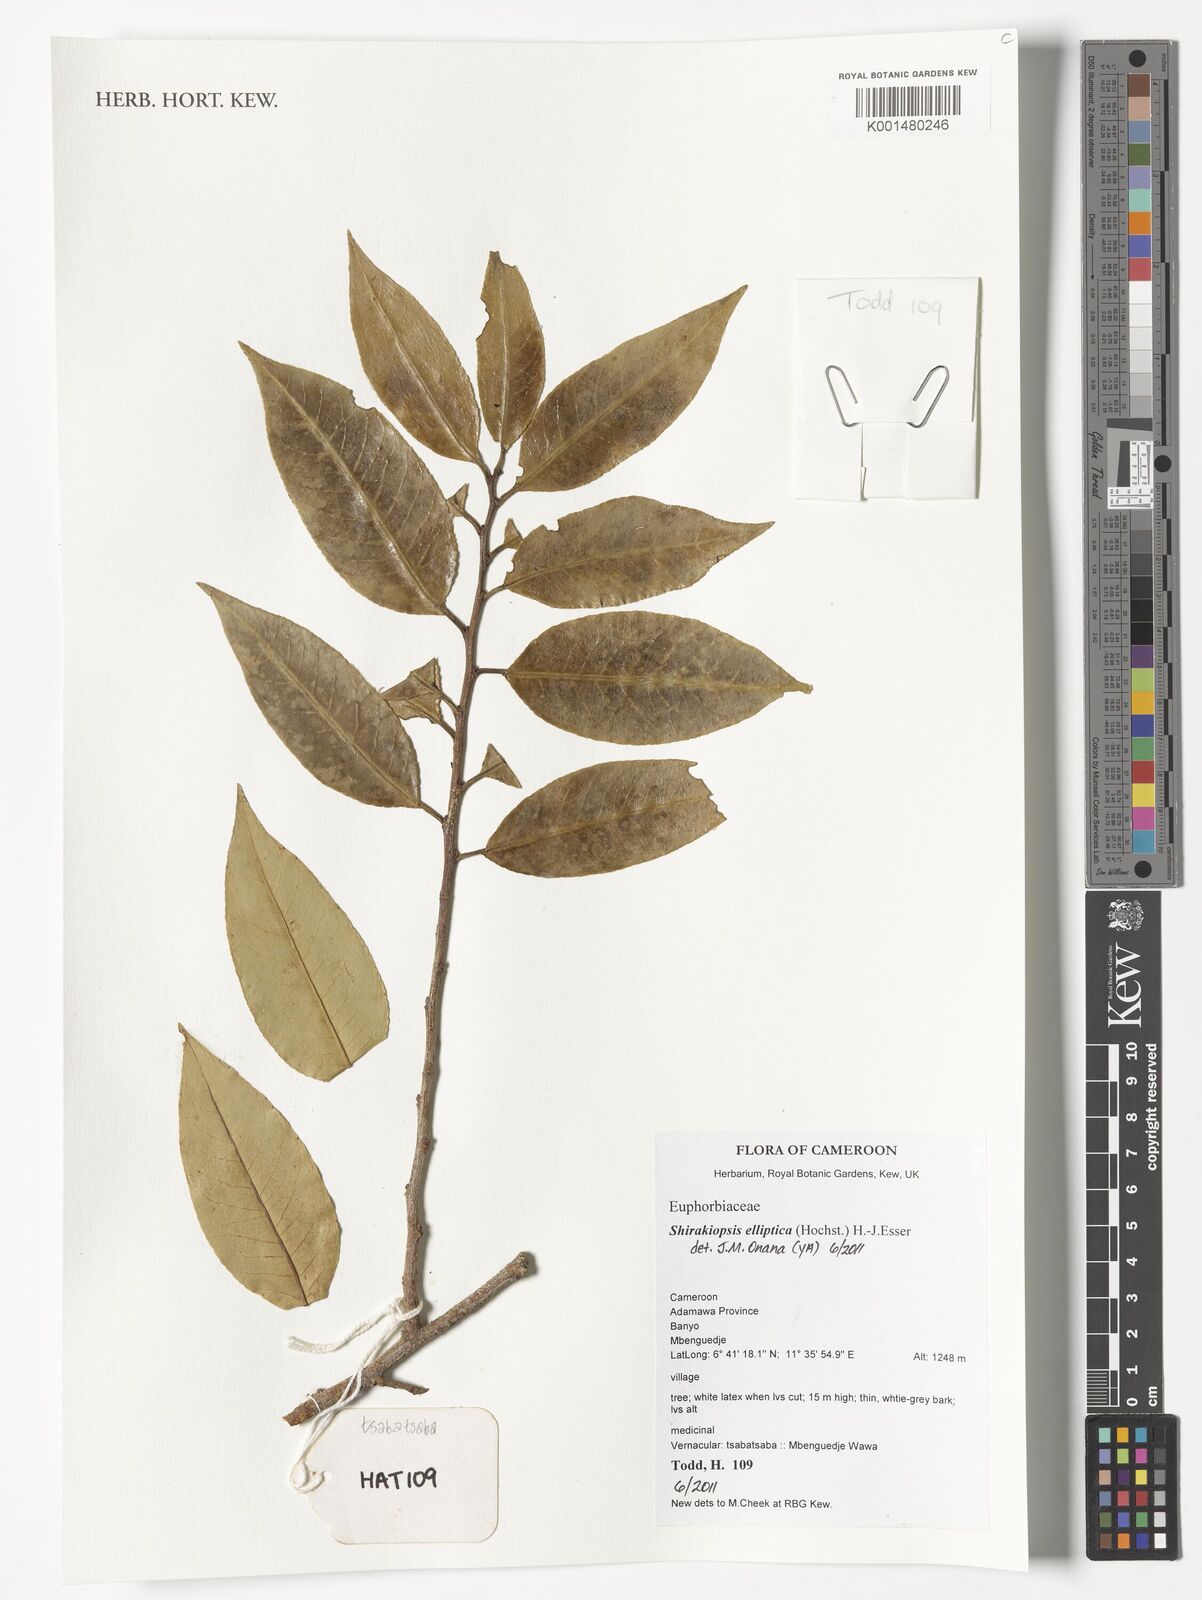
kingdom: Plantae
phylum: Tracheophyta
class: Magnoliopsida
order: Malpighiales
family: Euphorbiaceae
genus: Shirakiopsis
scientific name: Shirakiopsis elliptica
